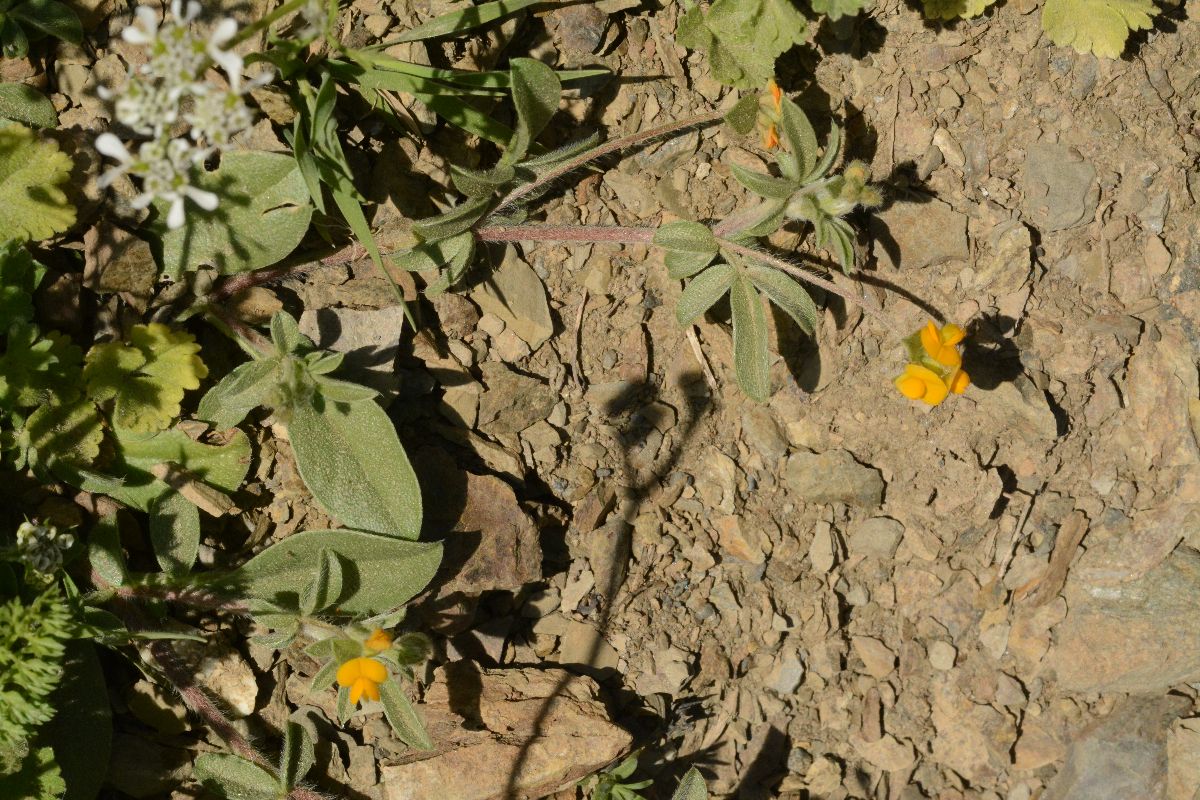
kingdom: Plantae
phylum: Tracheophyta
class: Magnoliopsida
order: Fabales
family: Fabaceae
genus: Anthyllis
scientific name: Anthyllis circinnata
